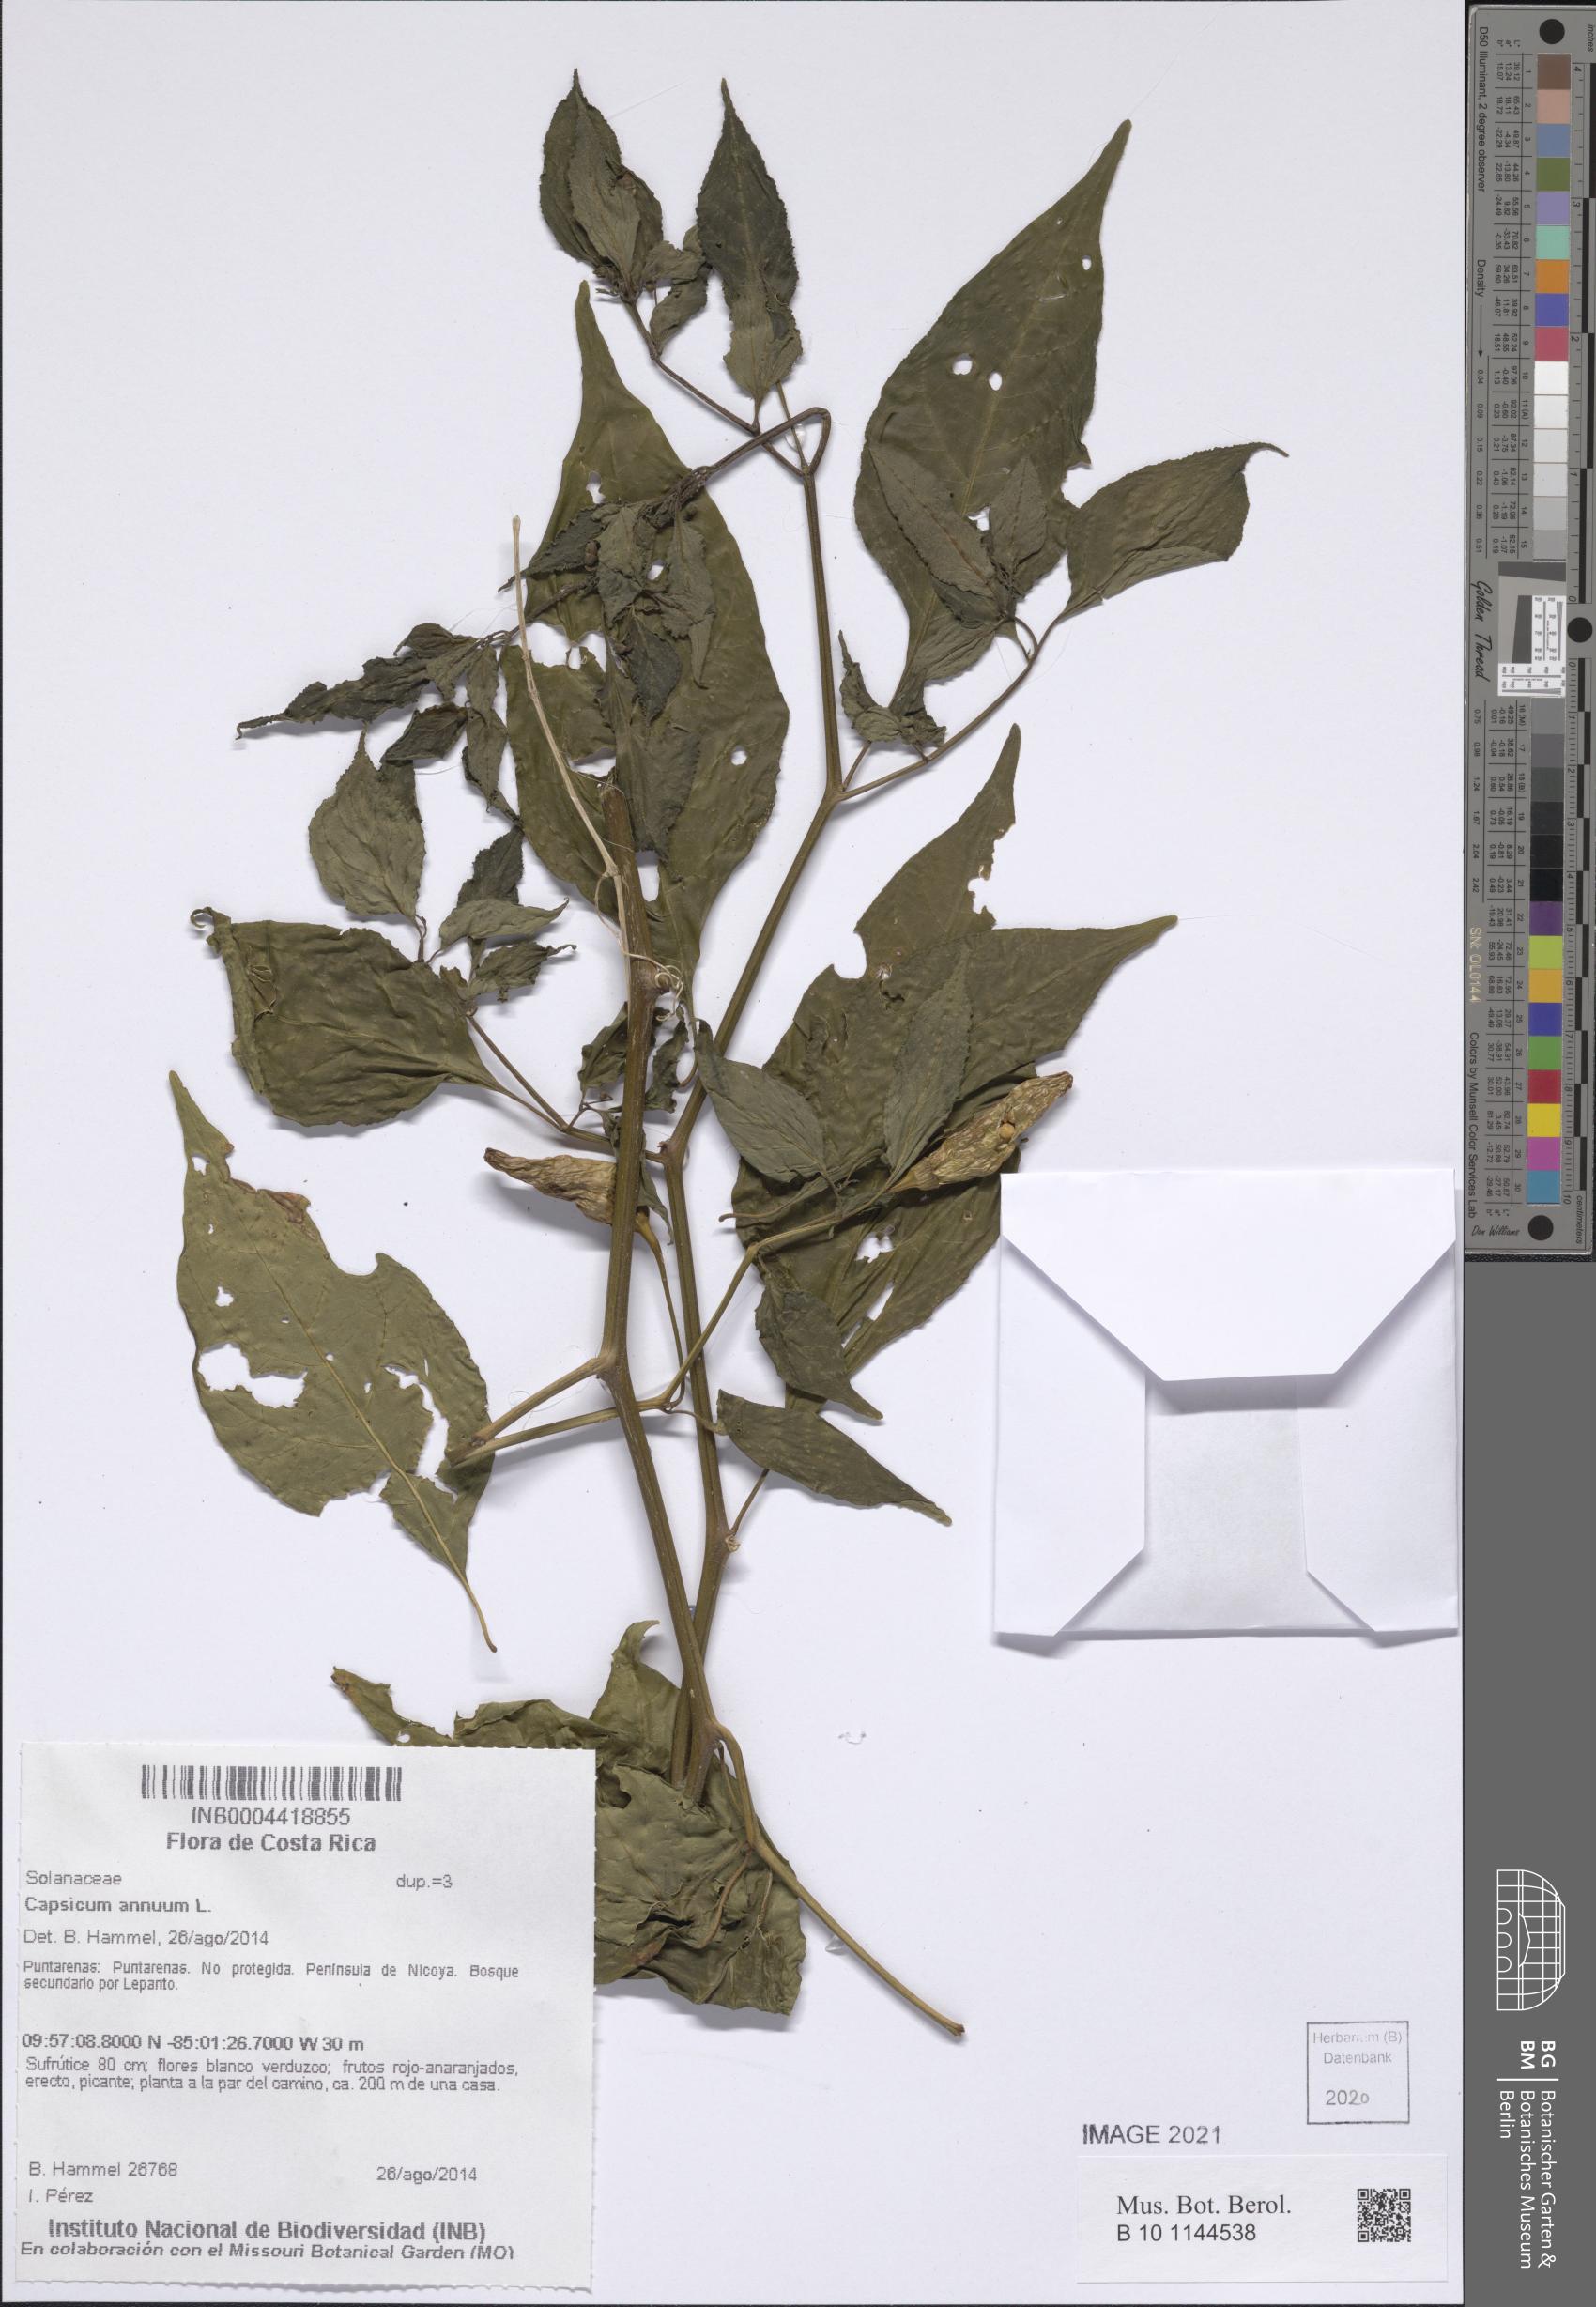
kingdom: Plantae
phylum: Tracheophyta
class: Magnoliopsida
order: Solanales
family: Solanaceae
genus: Capsicum
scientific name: Capsicum annuum
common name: Sweet pepper
